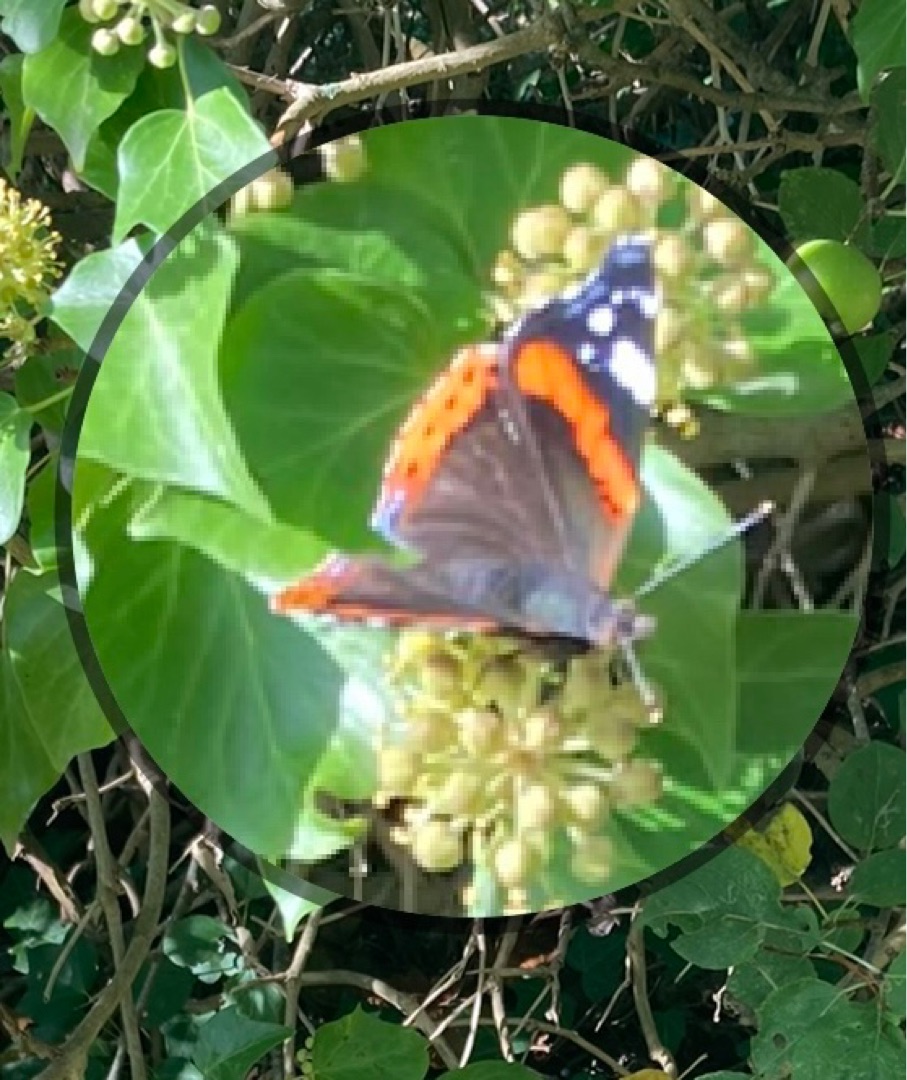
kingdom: Animalia
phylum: Arthropoda
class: Insecta
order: Lepidoptera
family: Nymphalidae
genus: Vanessa
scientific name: Vanessa atalanta
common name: Admiral
